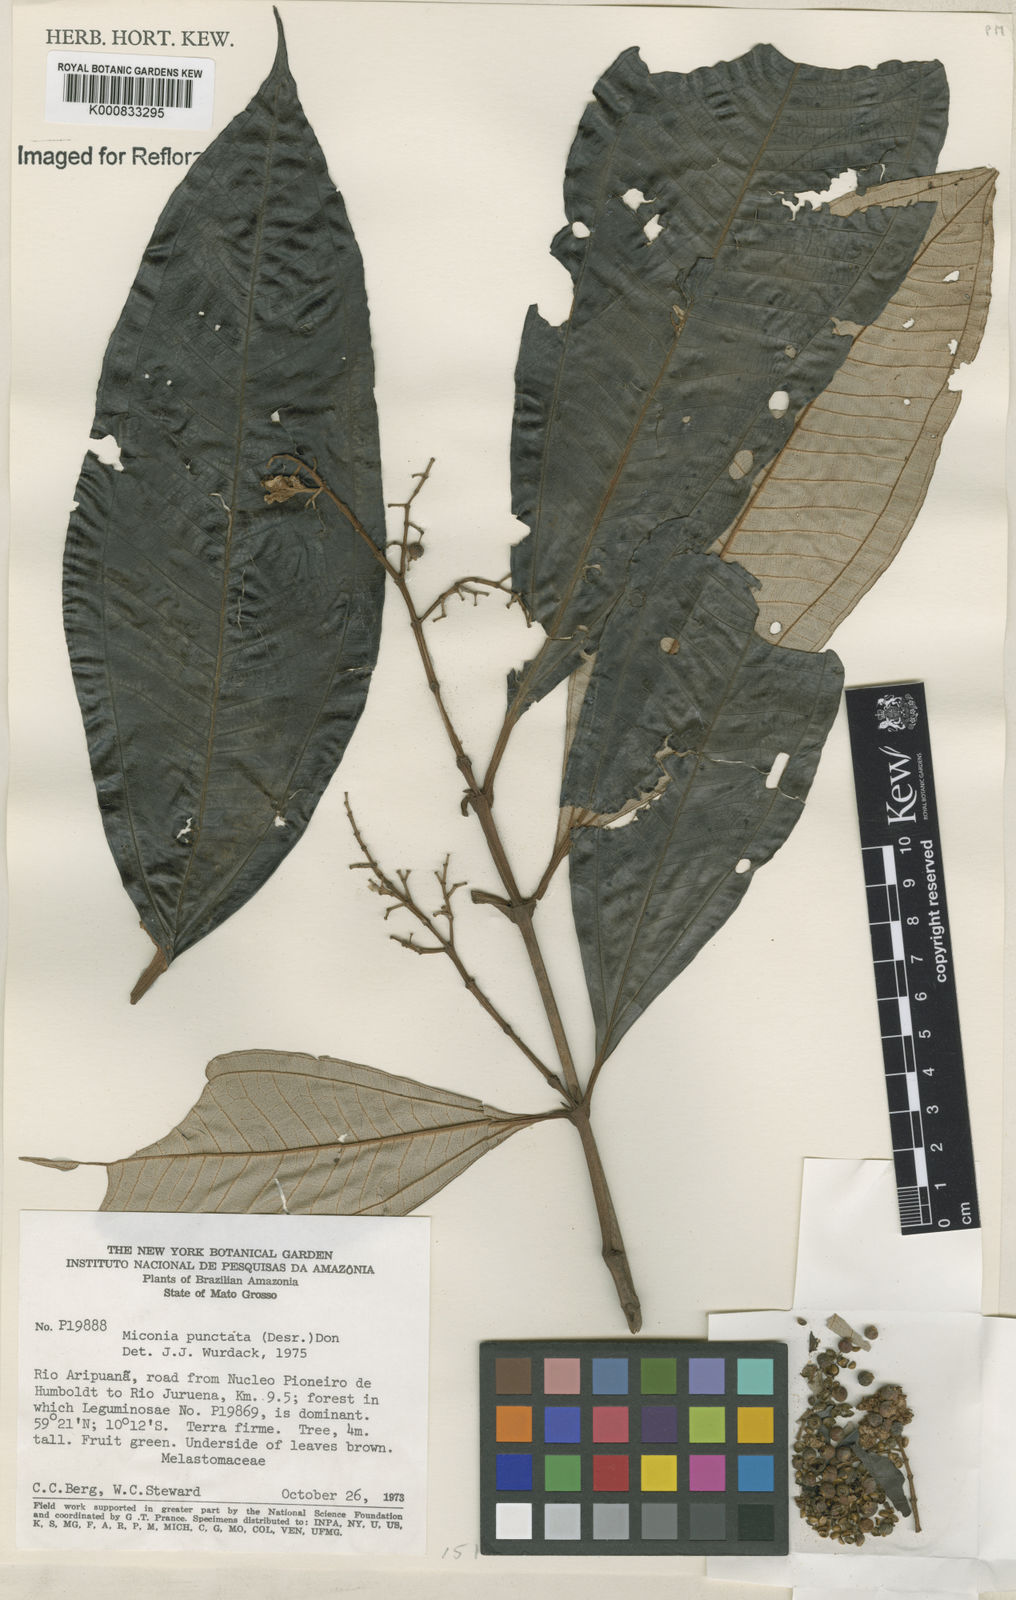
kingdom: Plantae
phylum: Tracheophyta
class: Magnoliopsida
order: Myrtales
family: Melastomataceae
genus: Miconia
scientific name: Miconia punctata
